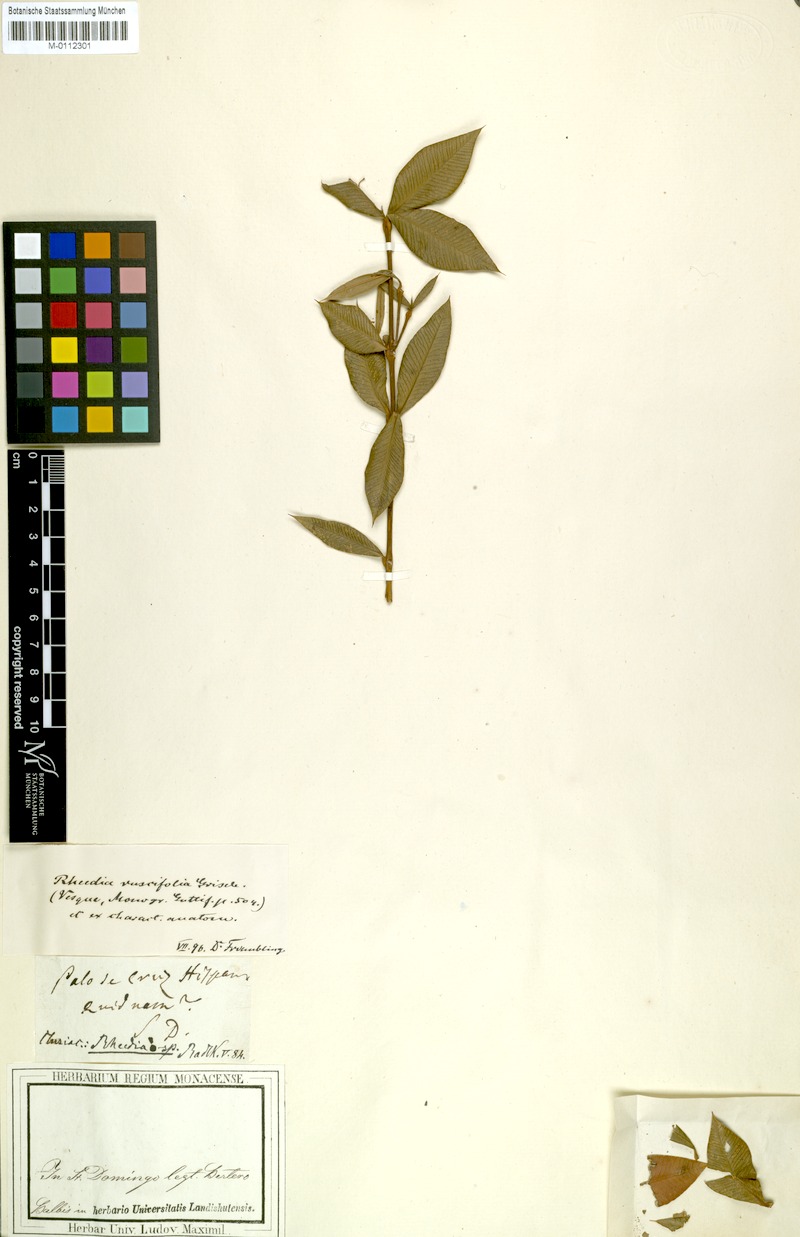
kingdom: Plantae
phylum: Tracheophyta
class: Magnoliopsida
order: Malpighiales
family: Clusiaceae
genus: Garcinia
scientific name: Garcinia ruscifolia
